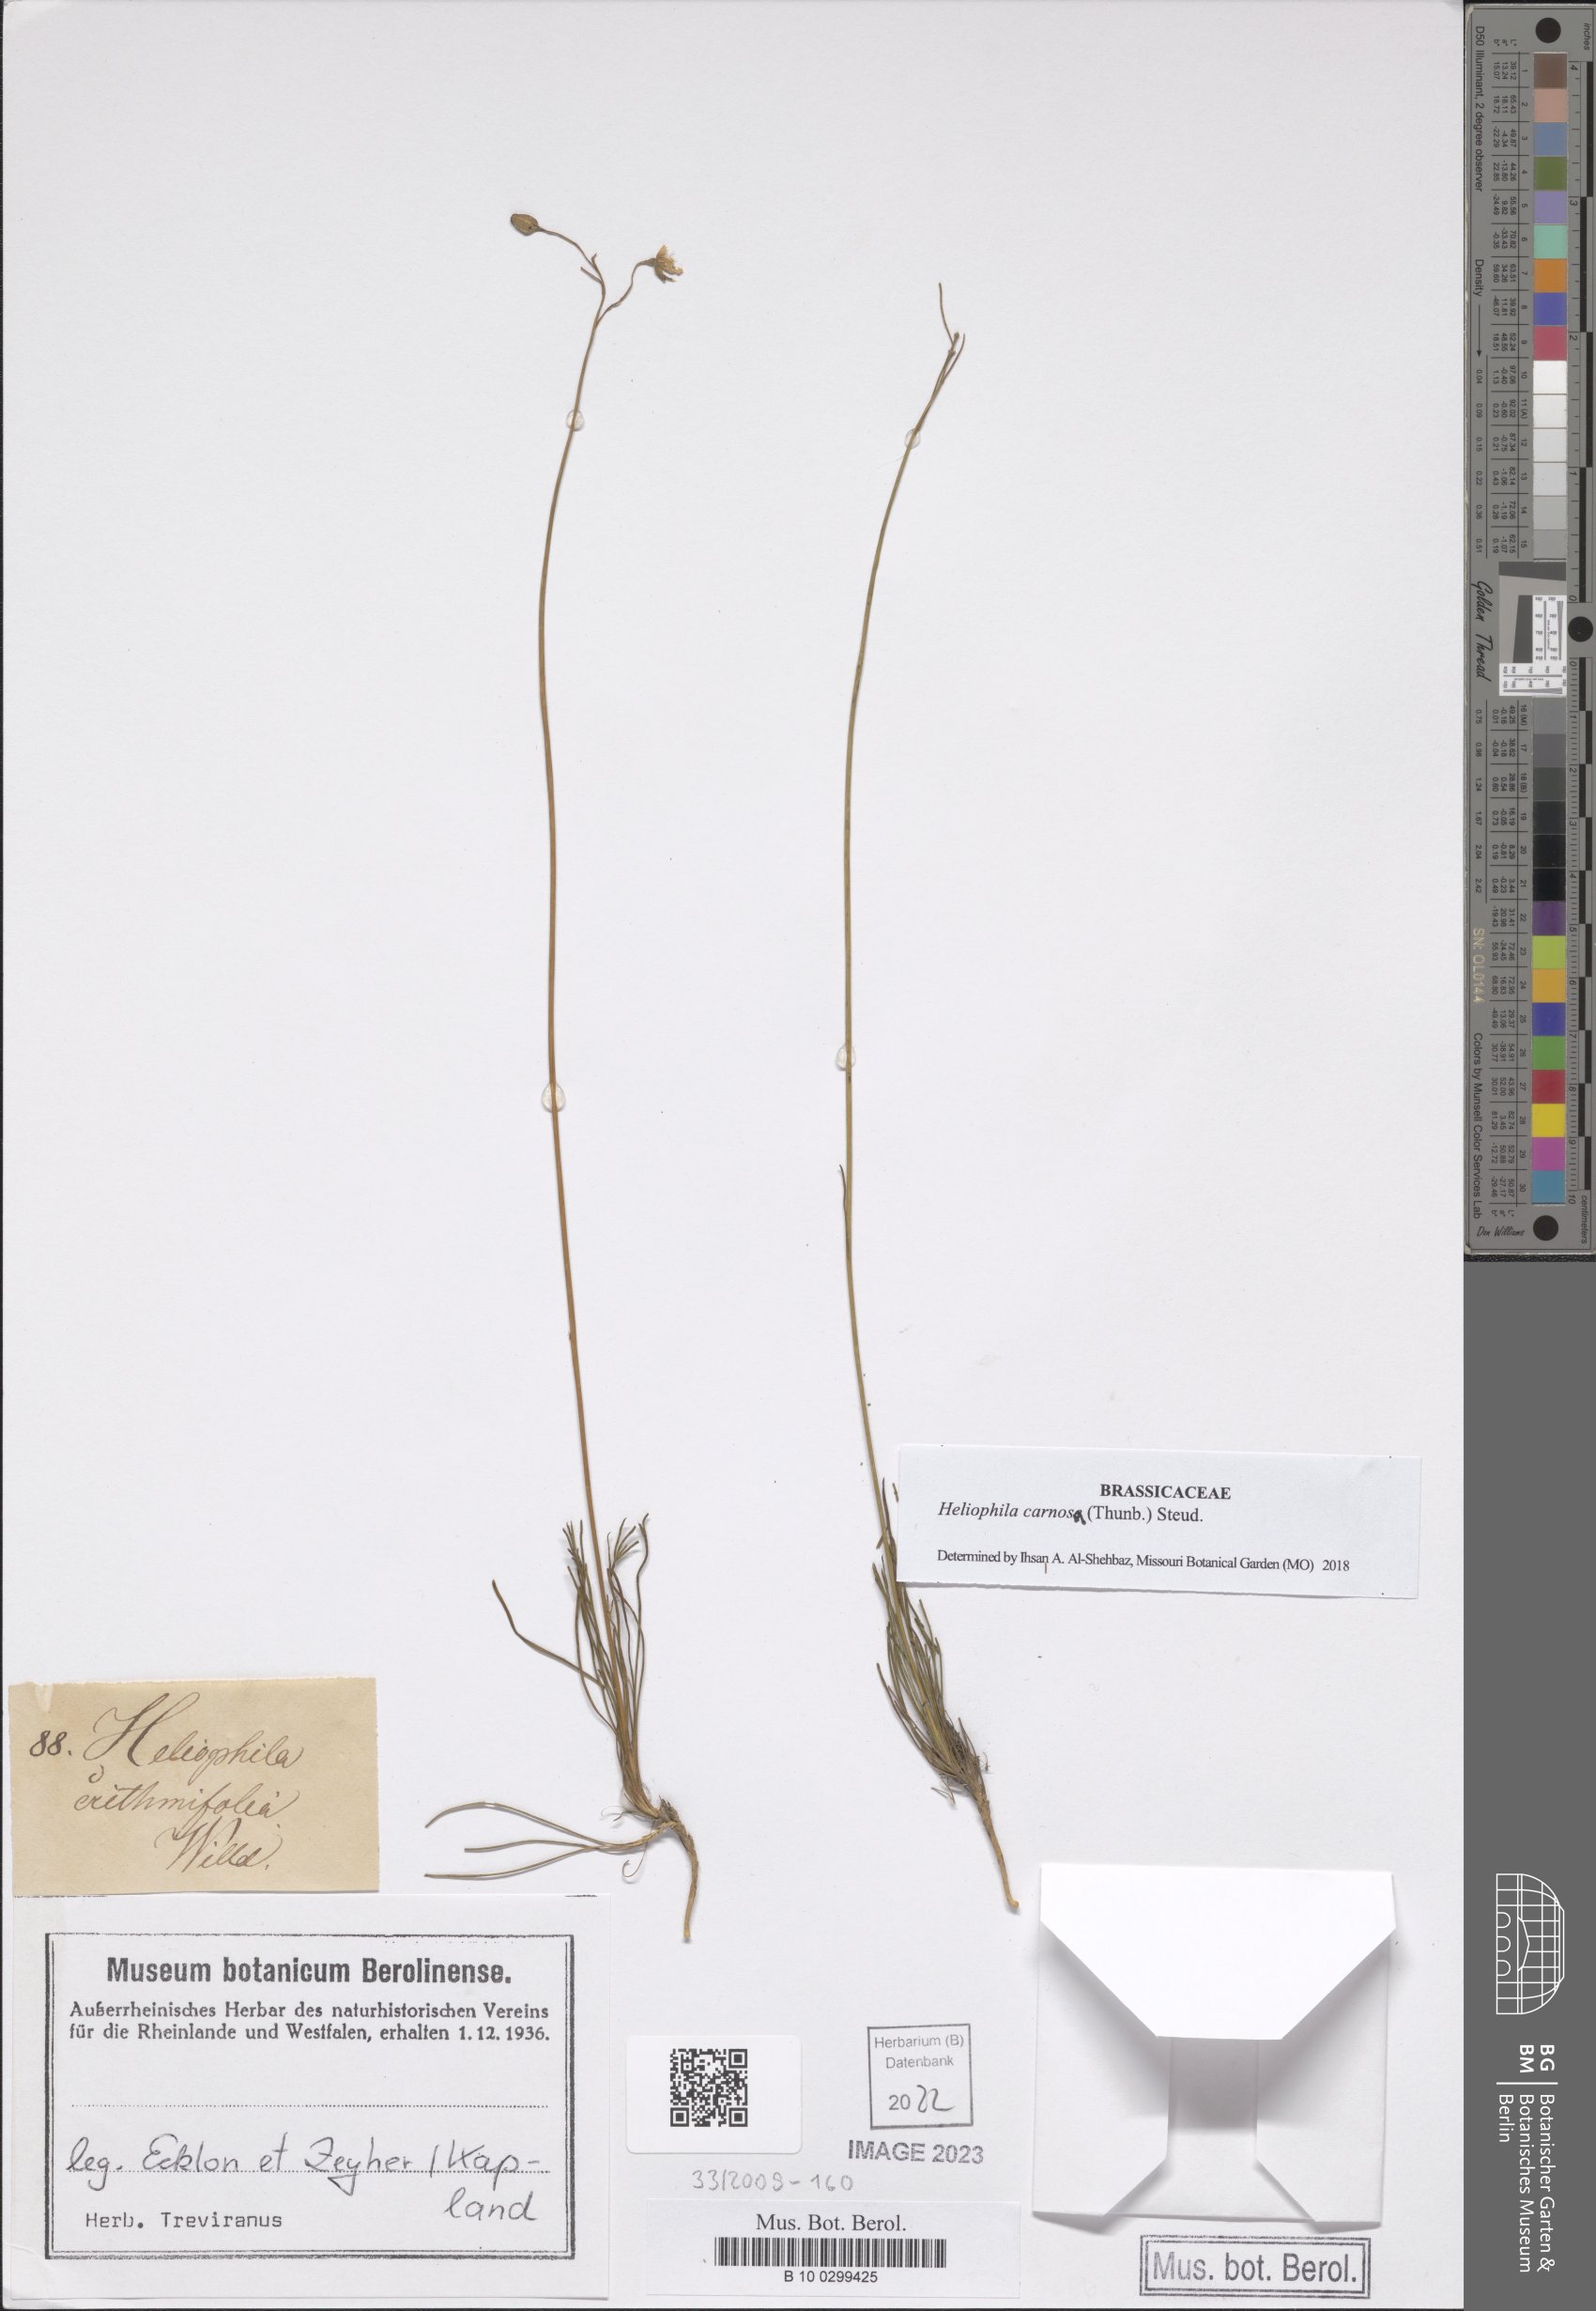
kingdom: Plantae
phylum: Tracheophyta
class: Magnoliopsida
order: Brassicales
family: Brassicaceae
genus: Heliophila
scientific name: Heliophila carnosa
